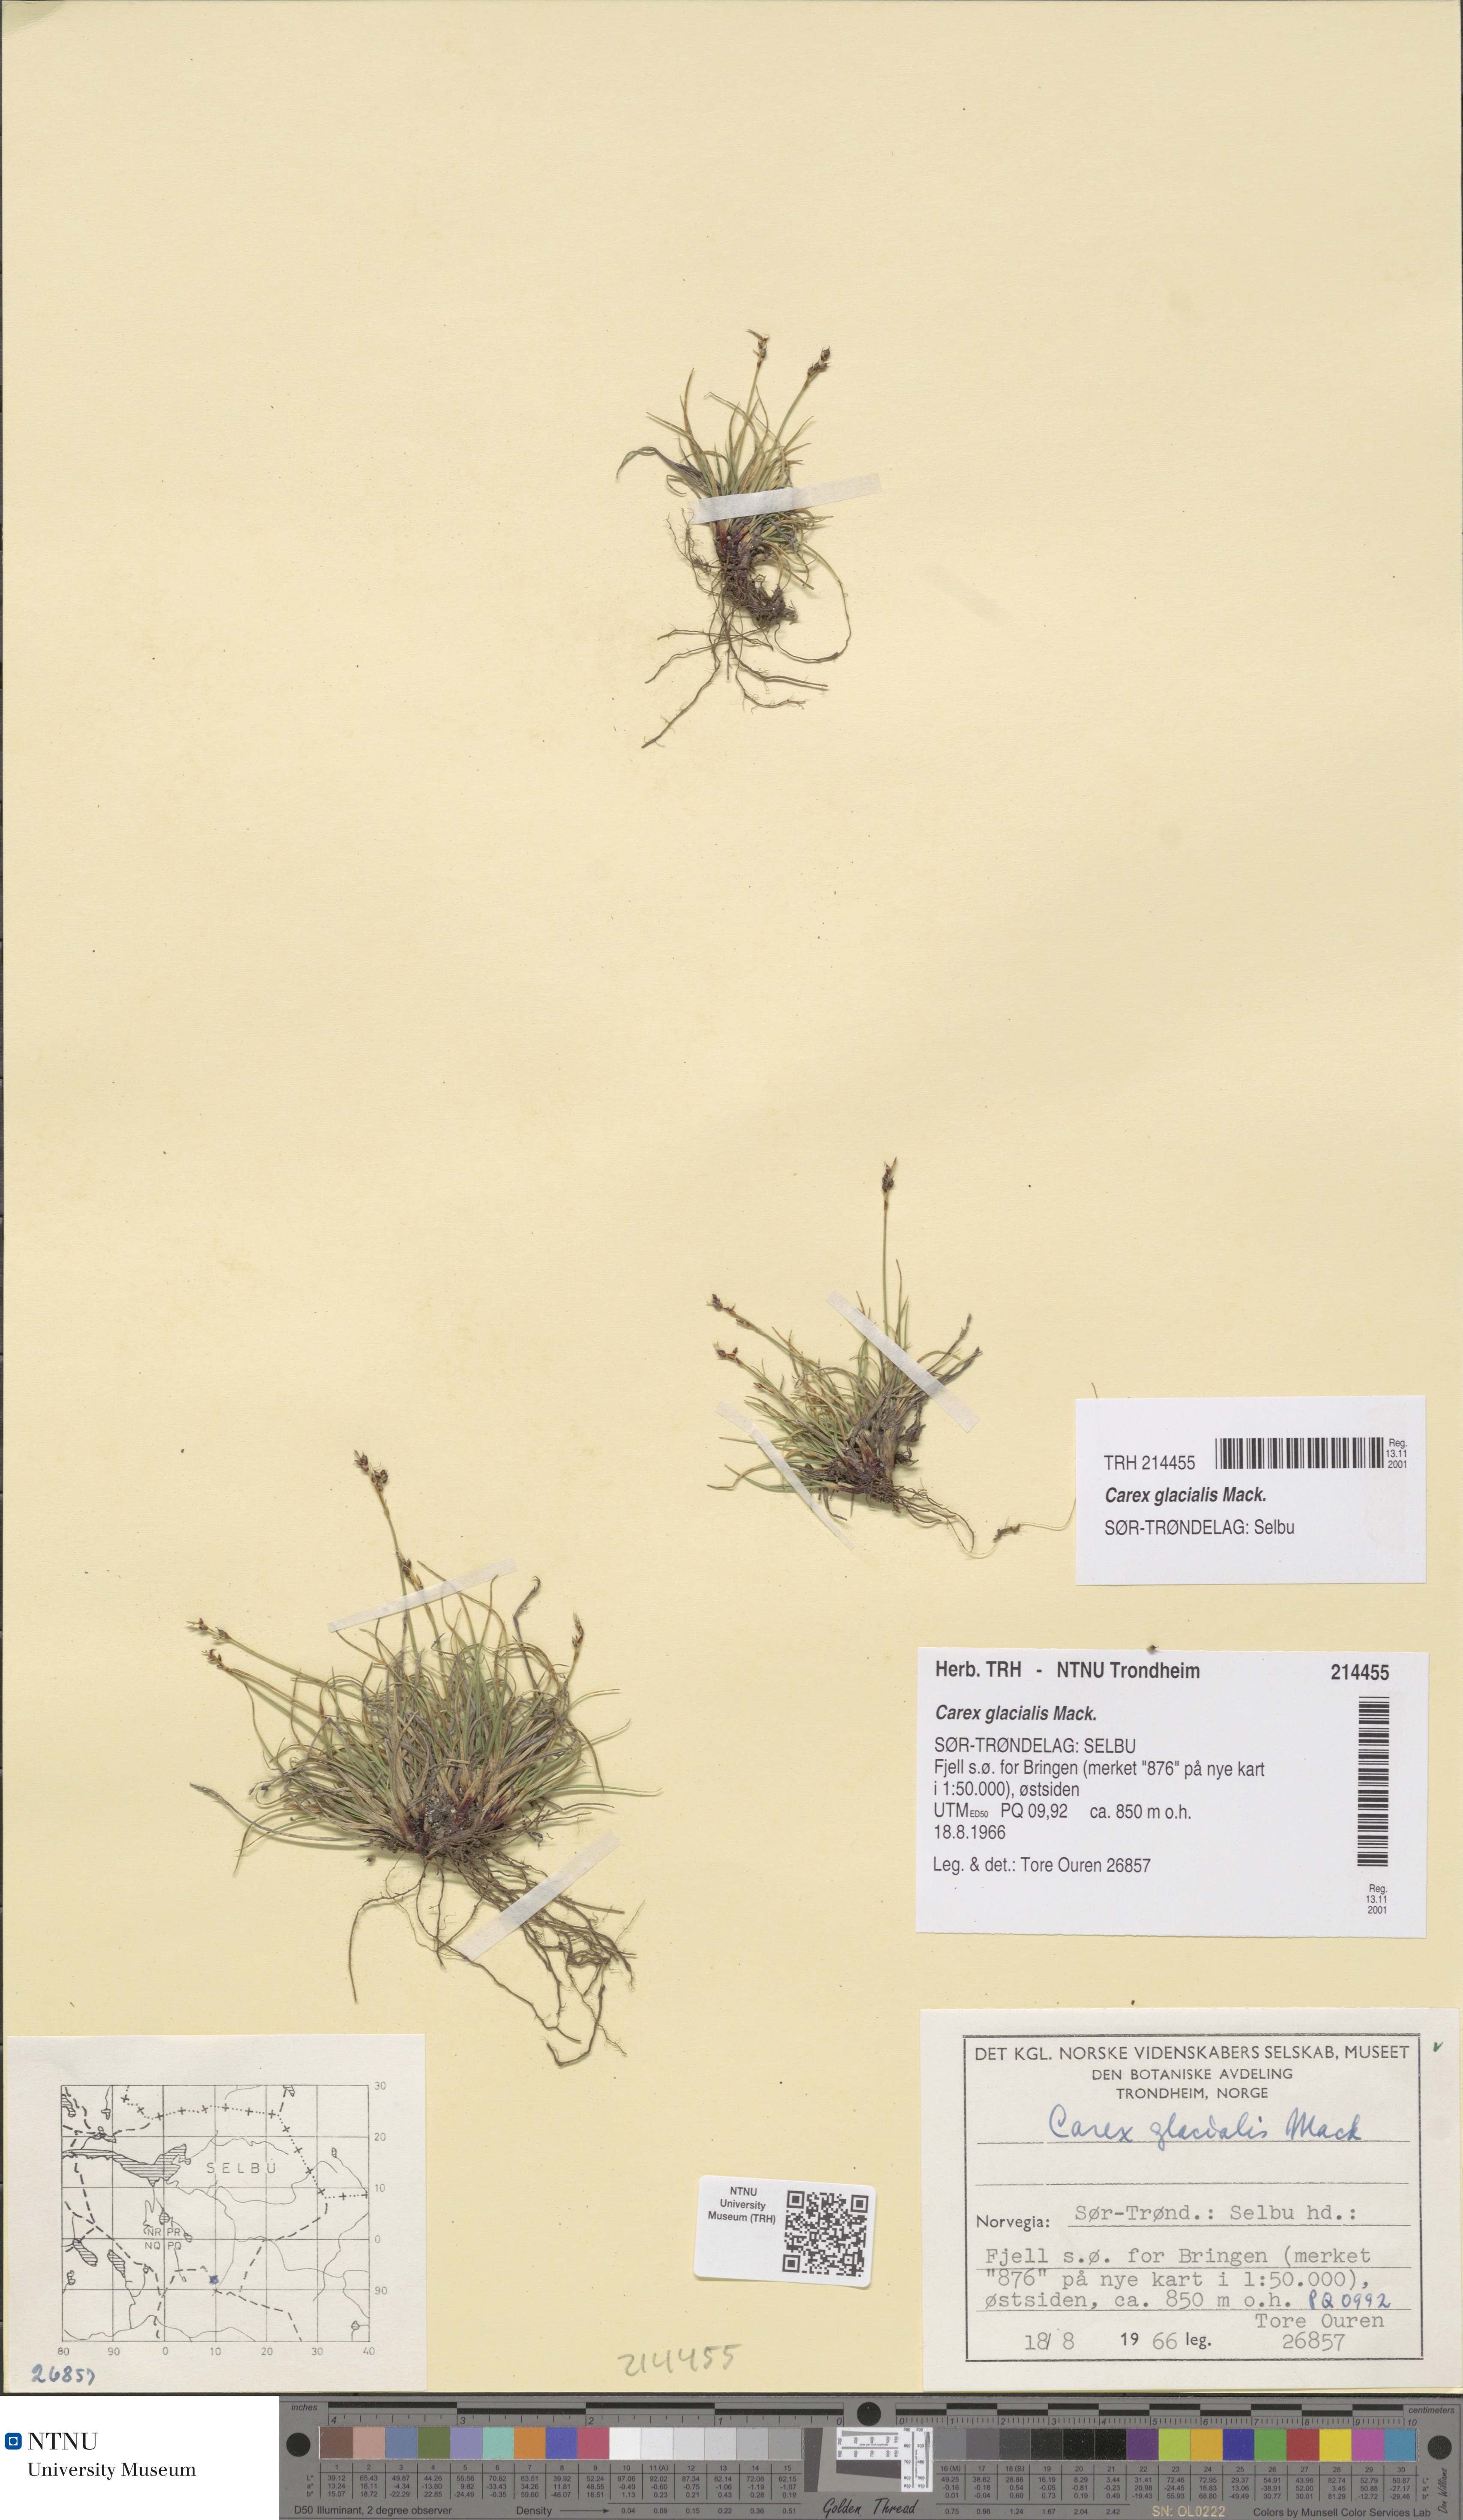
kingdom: Plantae
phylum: Tracheophyta
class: Liliopsida
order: Poales
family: Cyperaceae
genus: Carex
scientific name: Carex glacialis
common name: Newfoundland sedge
